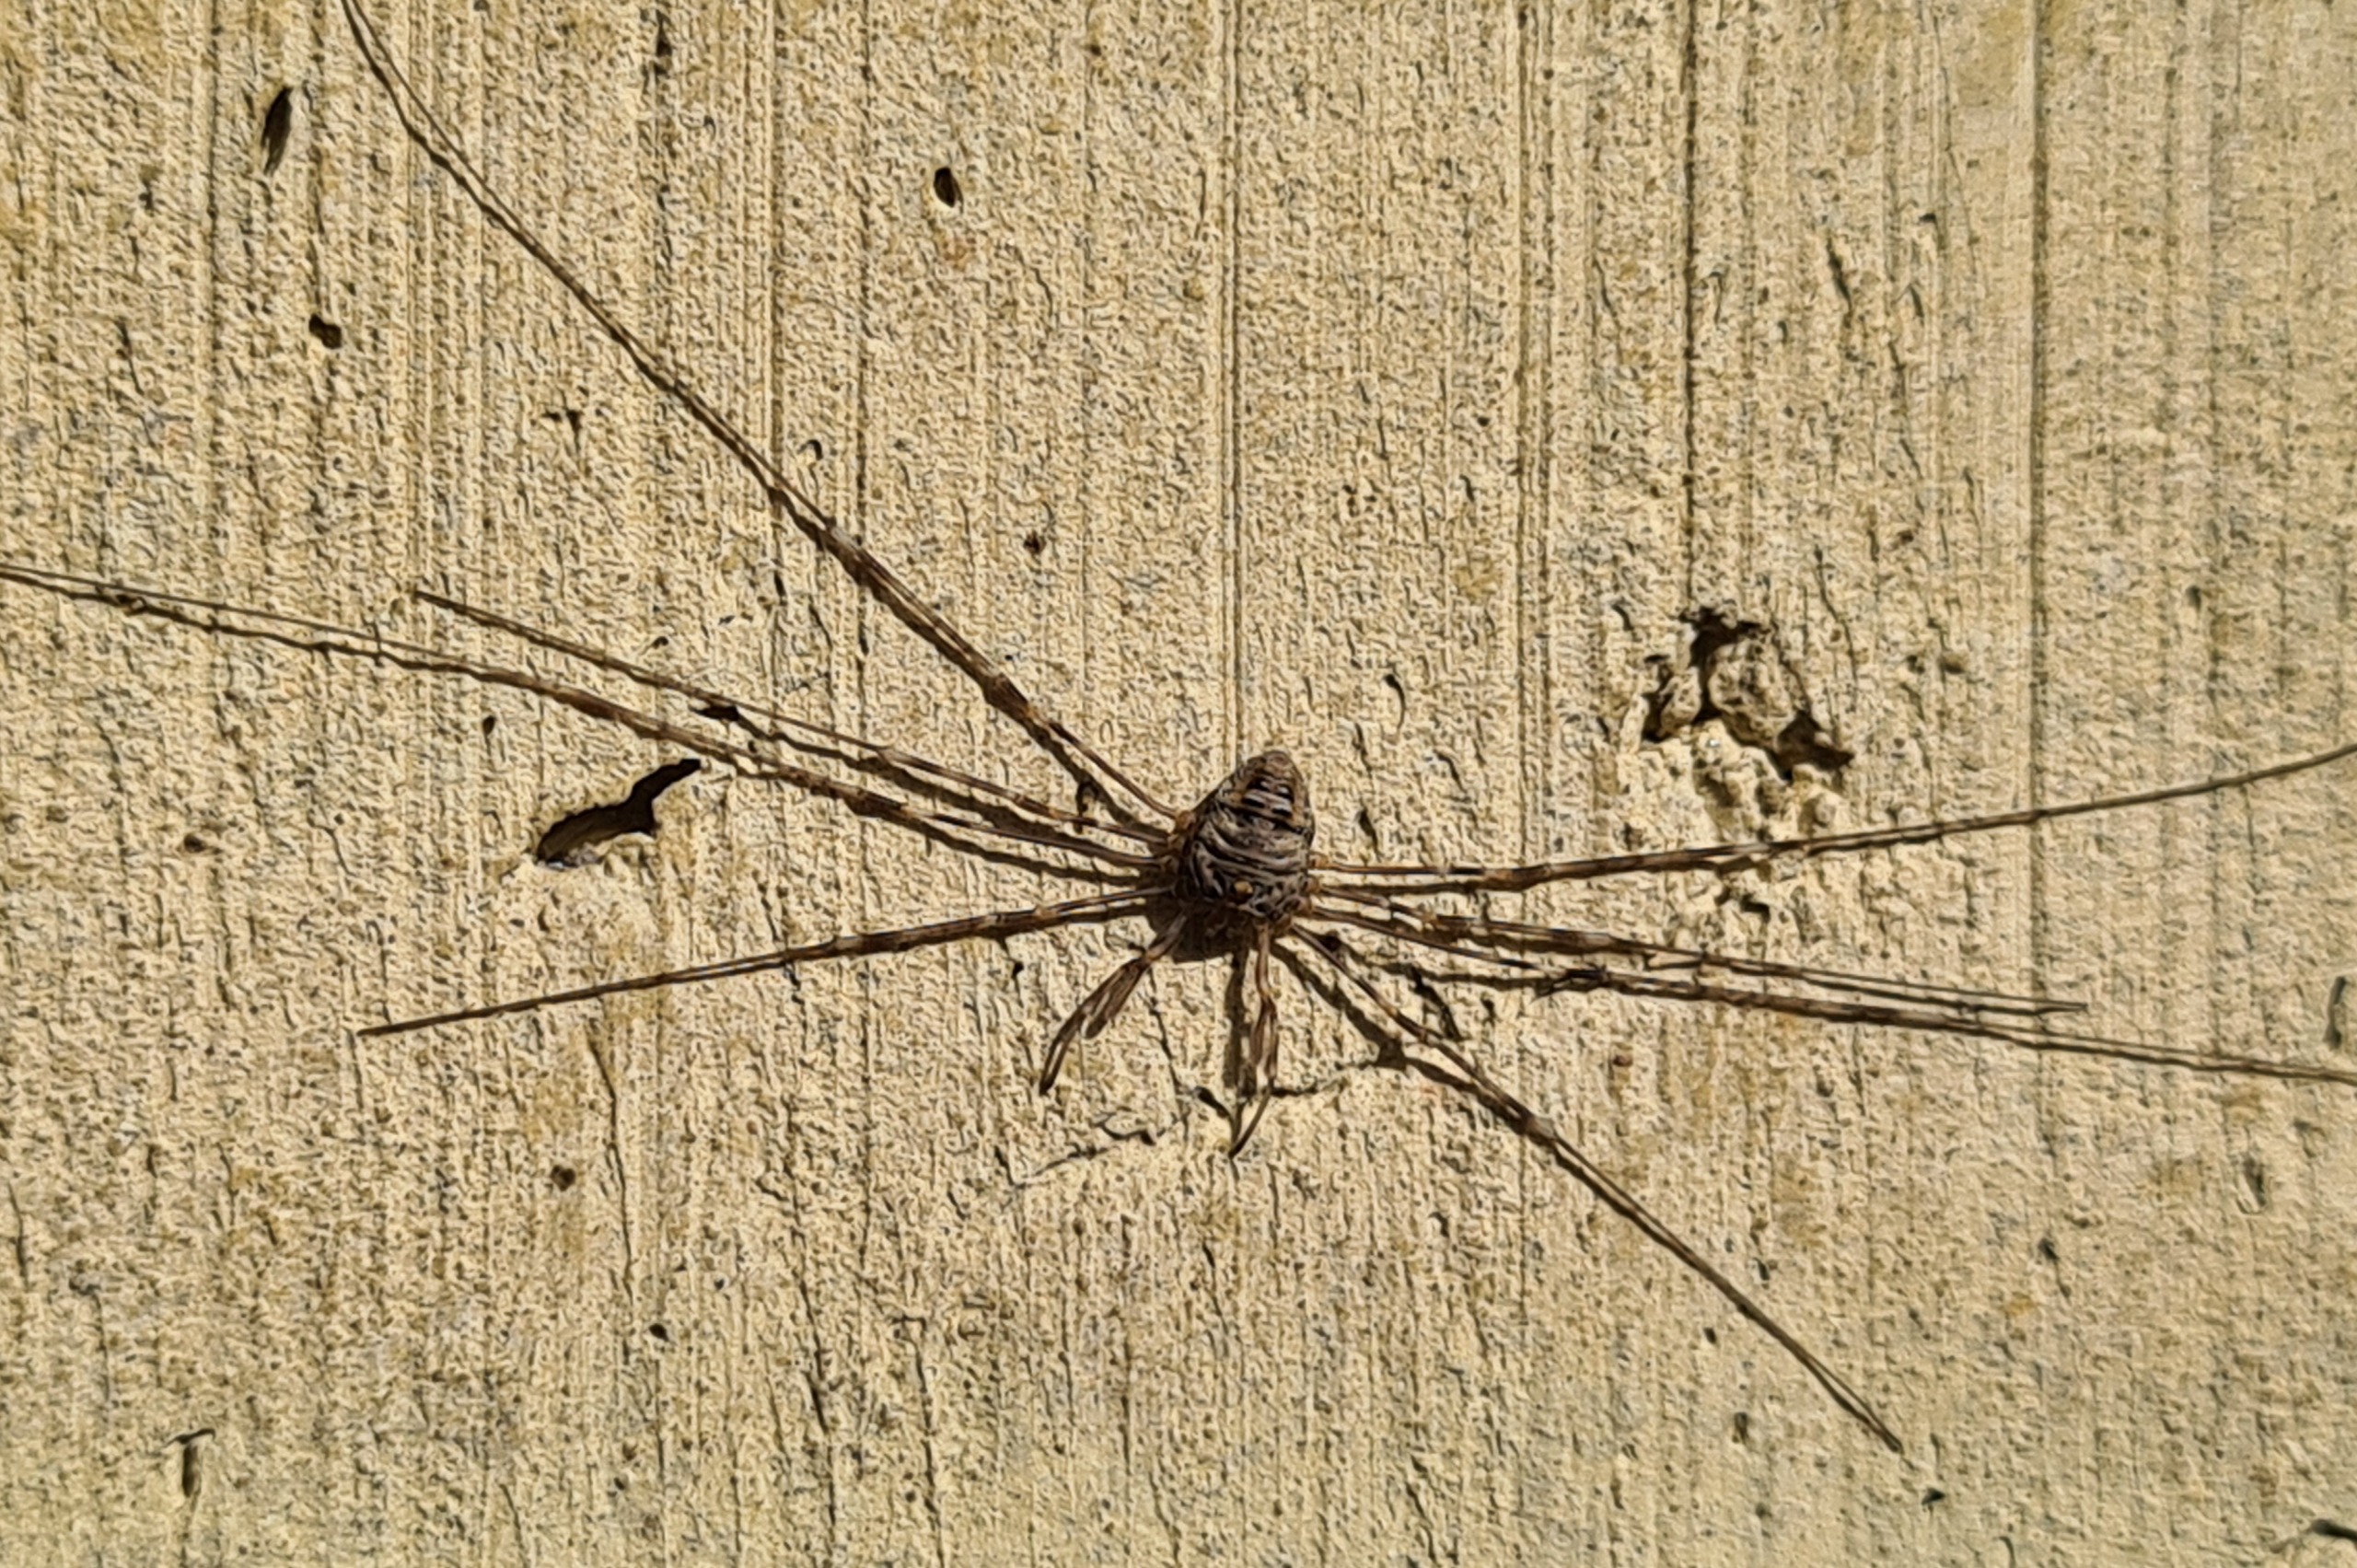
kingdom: Animalia
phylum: Arthropoda
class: Arachnida
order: Opiliones
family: Phalangiidae
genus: Dicranopalpus
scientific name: Dicranopalpus ramosus
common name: Gaffelmejer
